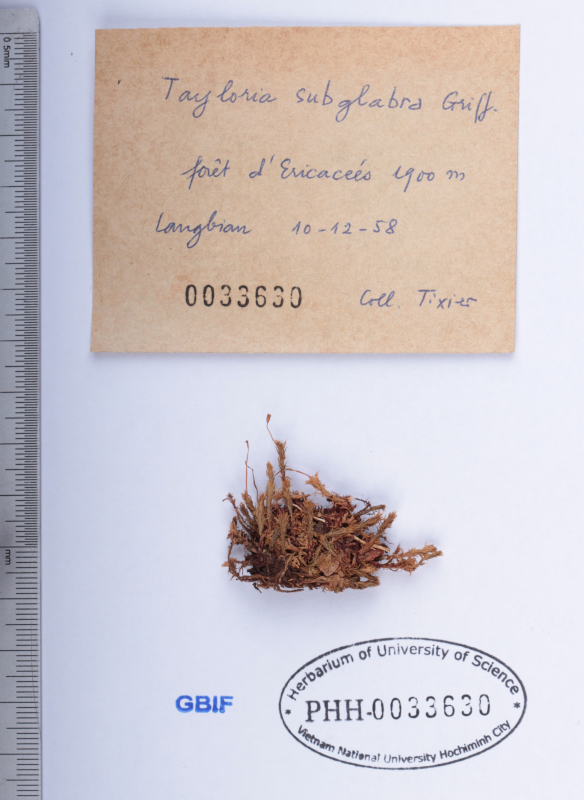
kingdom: Plantae
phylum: Bryophyta
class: Bryopsida
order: Splachnales
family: Splachnaceae
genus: Tayloria
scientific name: Tayloria subglabra
